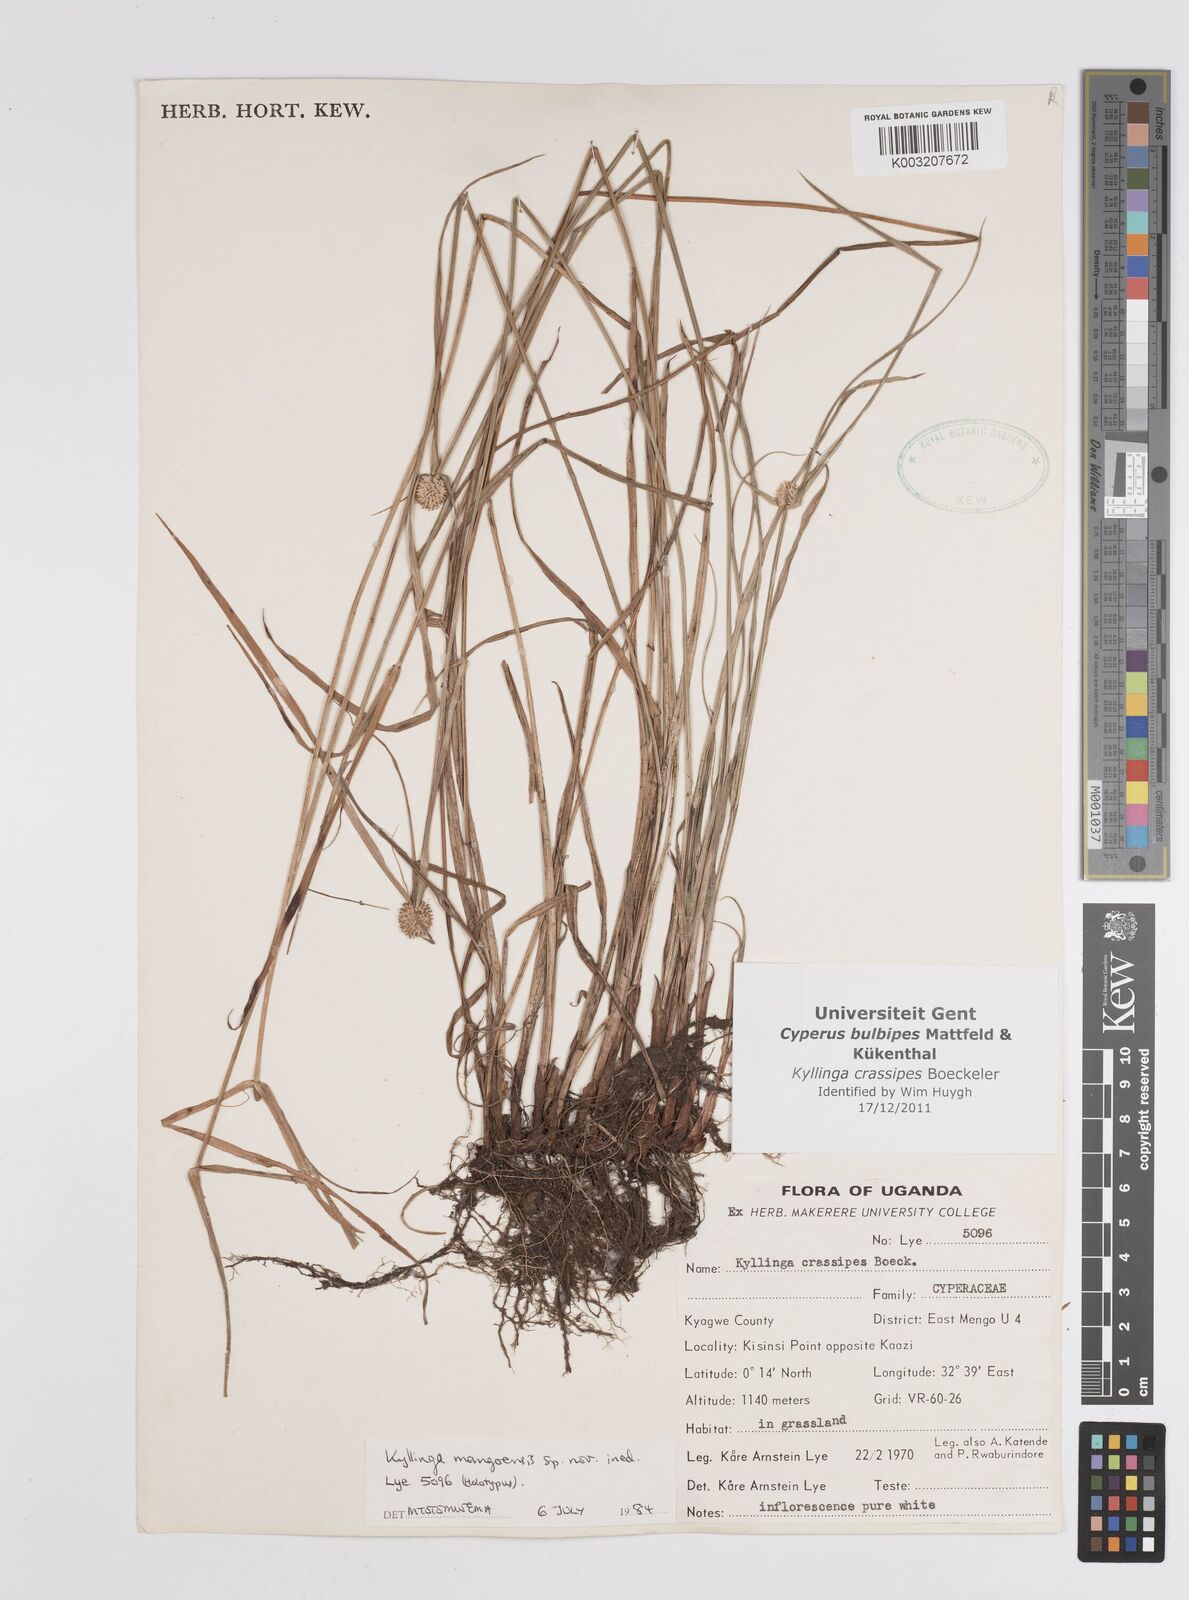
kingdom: Plantae
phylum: Tracheophyta
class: Liliopsida
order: Poales
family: Cyperaceae
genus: Cyperus
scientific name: Cyperus crassipes
